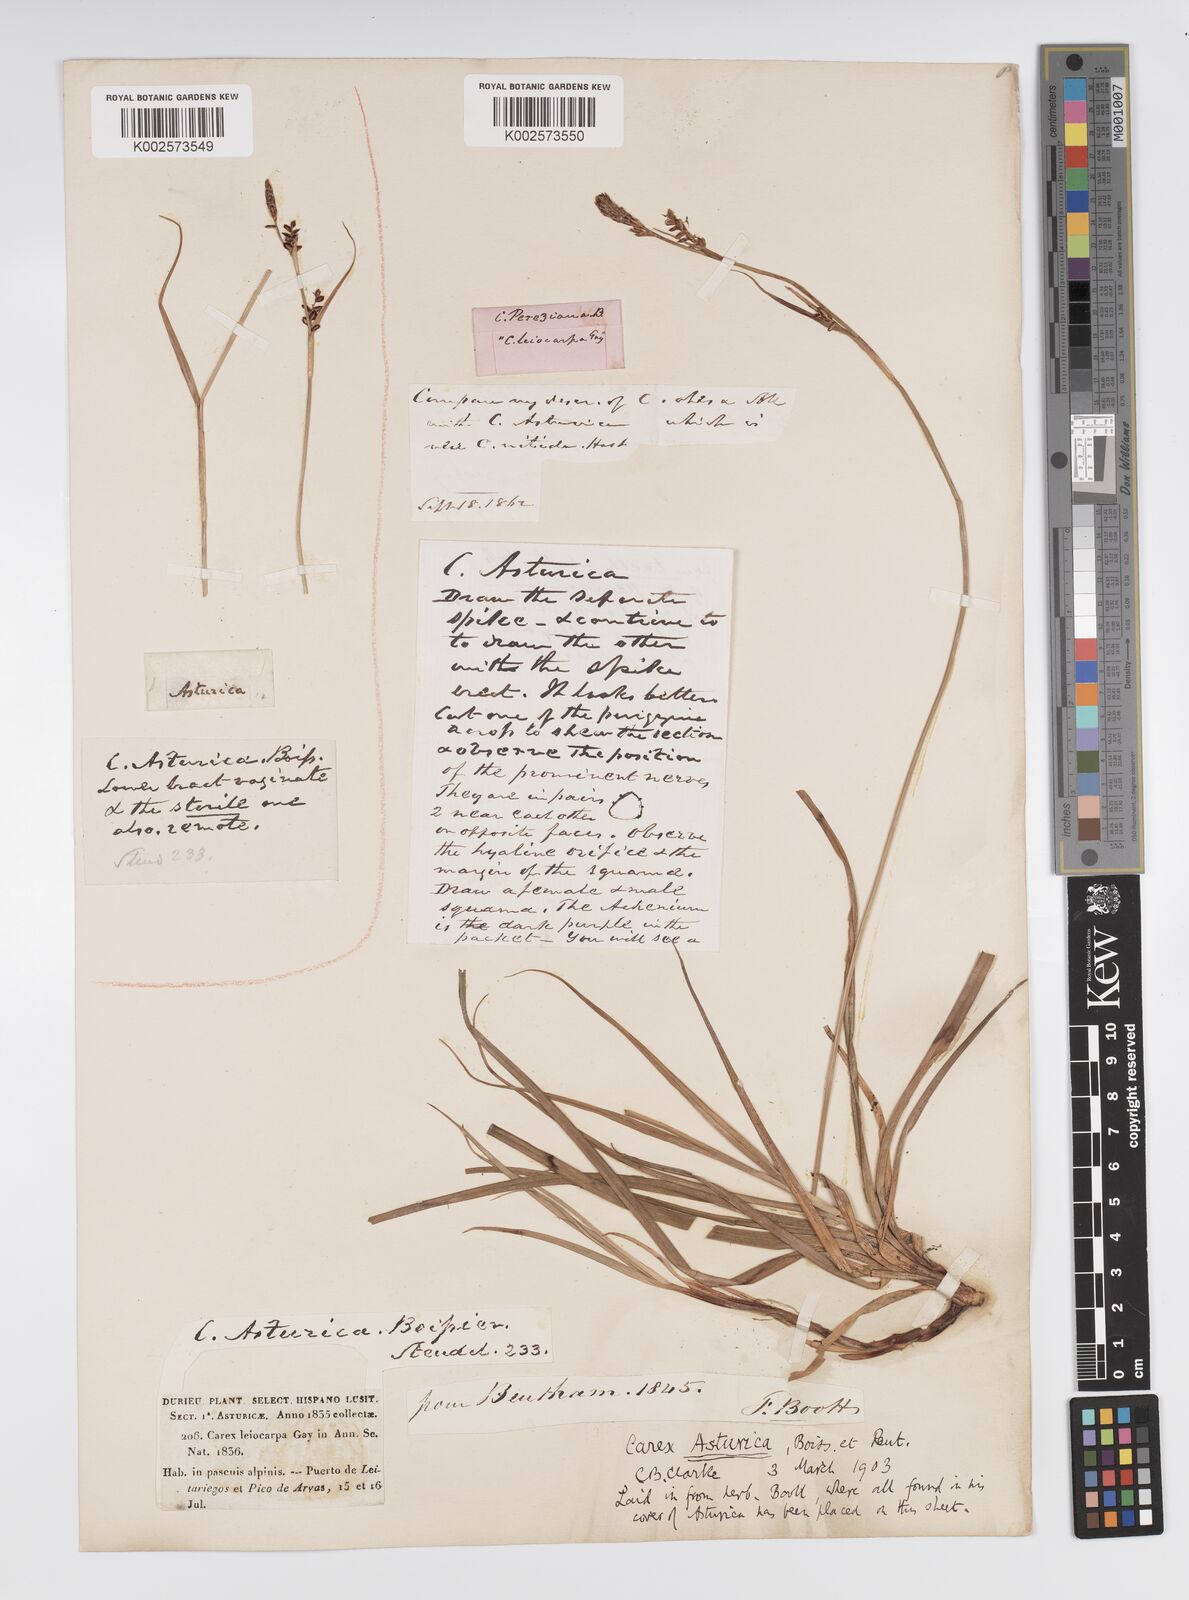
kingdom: Plantae
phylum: Tracheophyta
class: Liliopsida
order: Poales
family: Cyperaceae
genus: Carex
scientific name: Carex asturica
